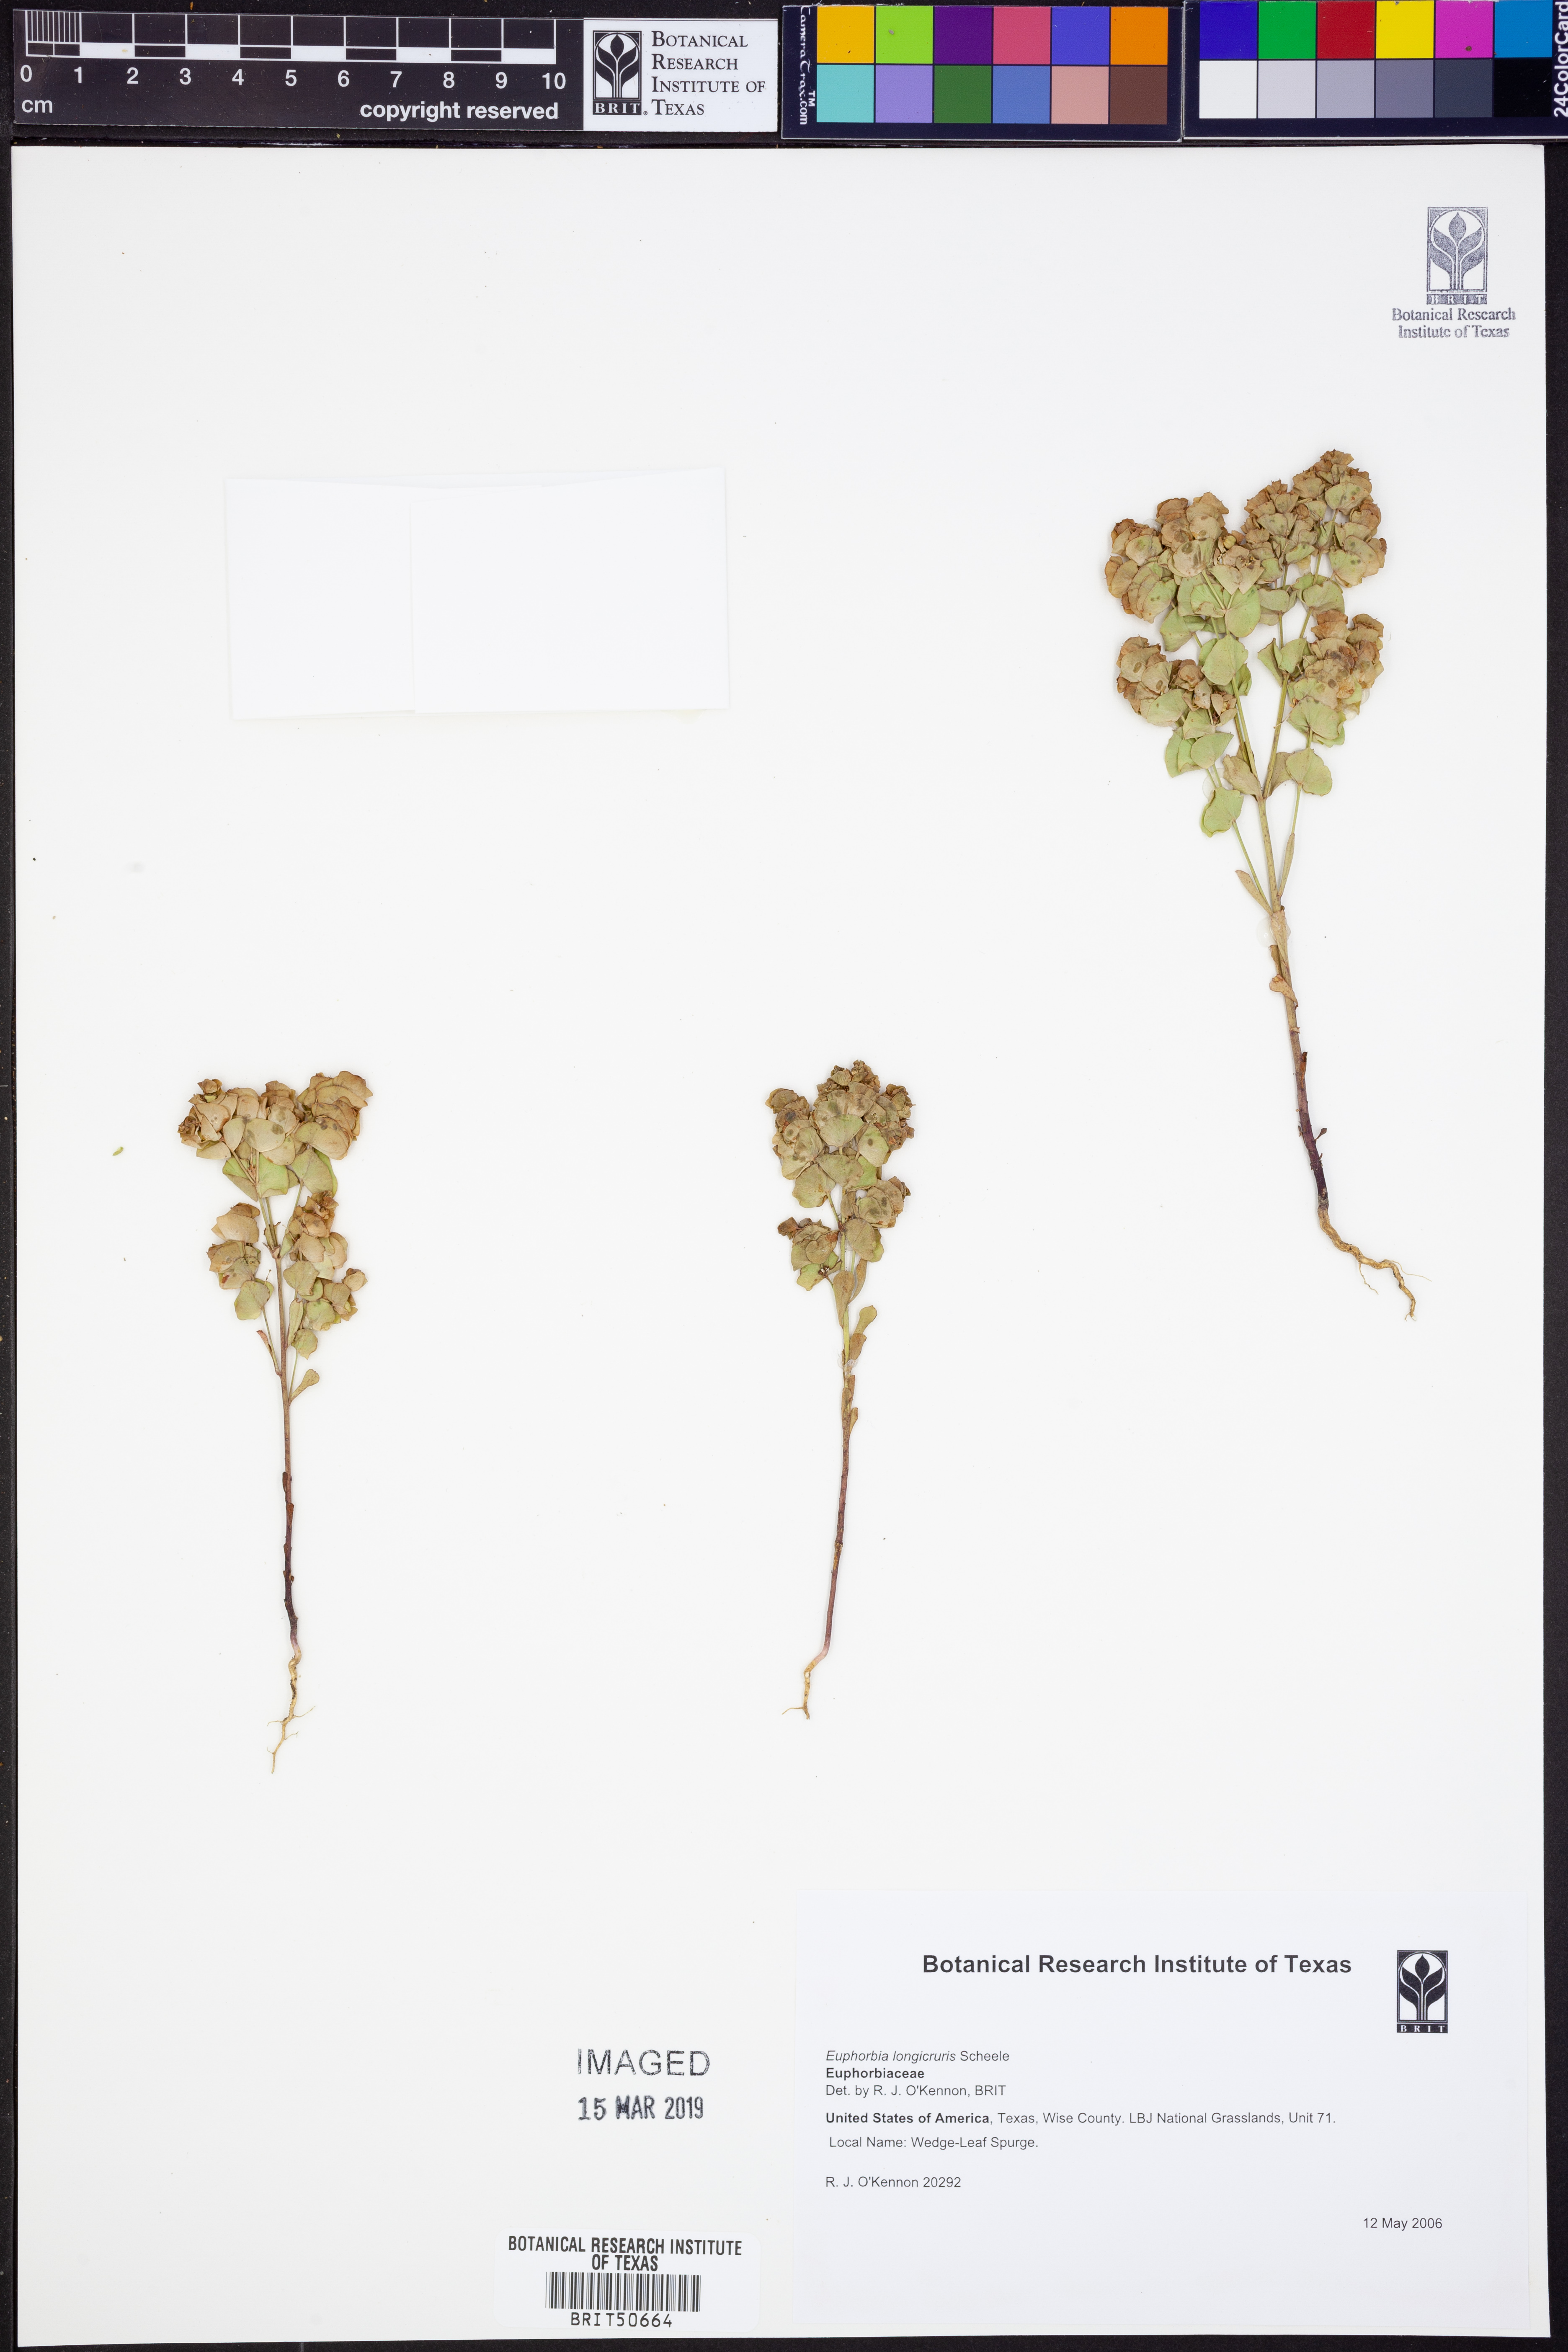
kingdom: Plantae
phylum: Tracheophyta
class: Magnoliopsida
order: Malpighiales
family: Euphorbiaceae
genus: Euphorbia
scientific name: Euphorbia longicruris
